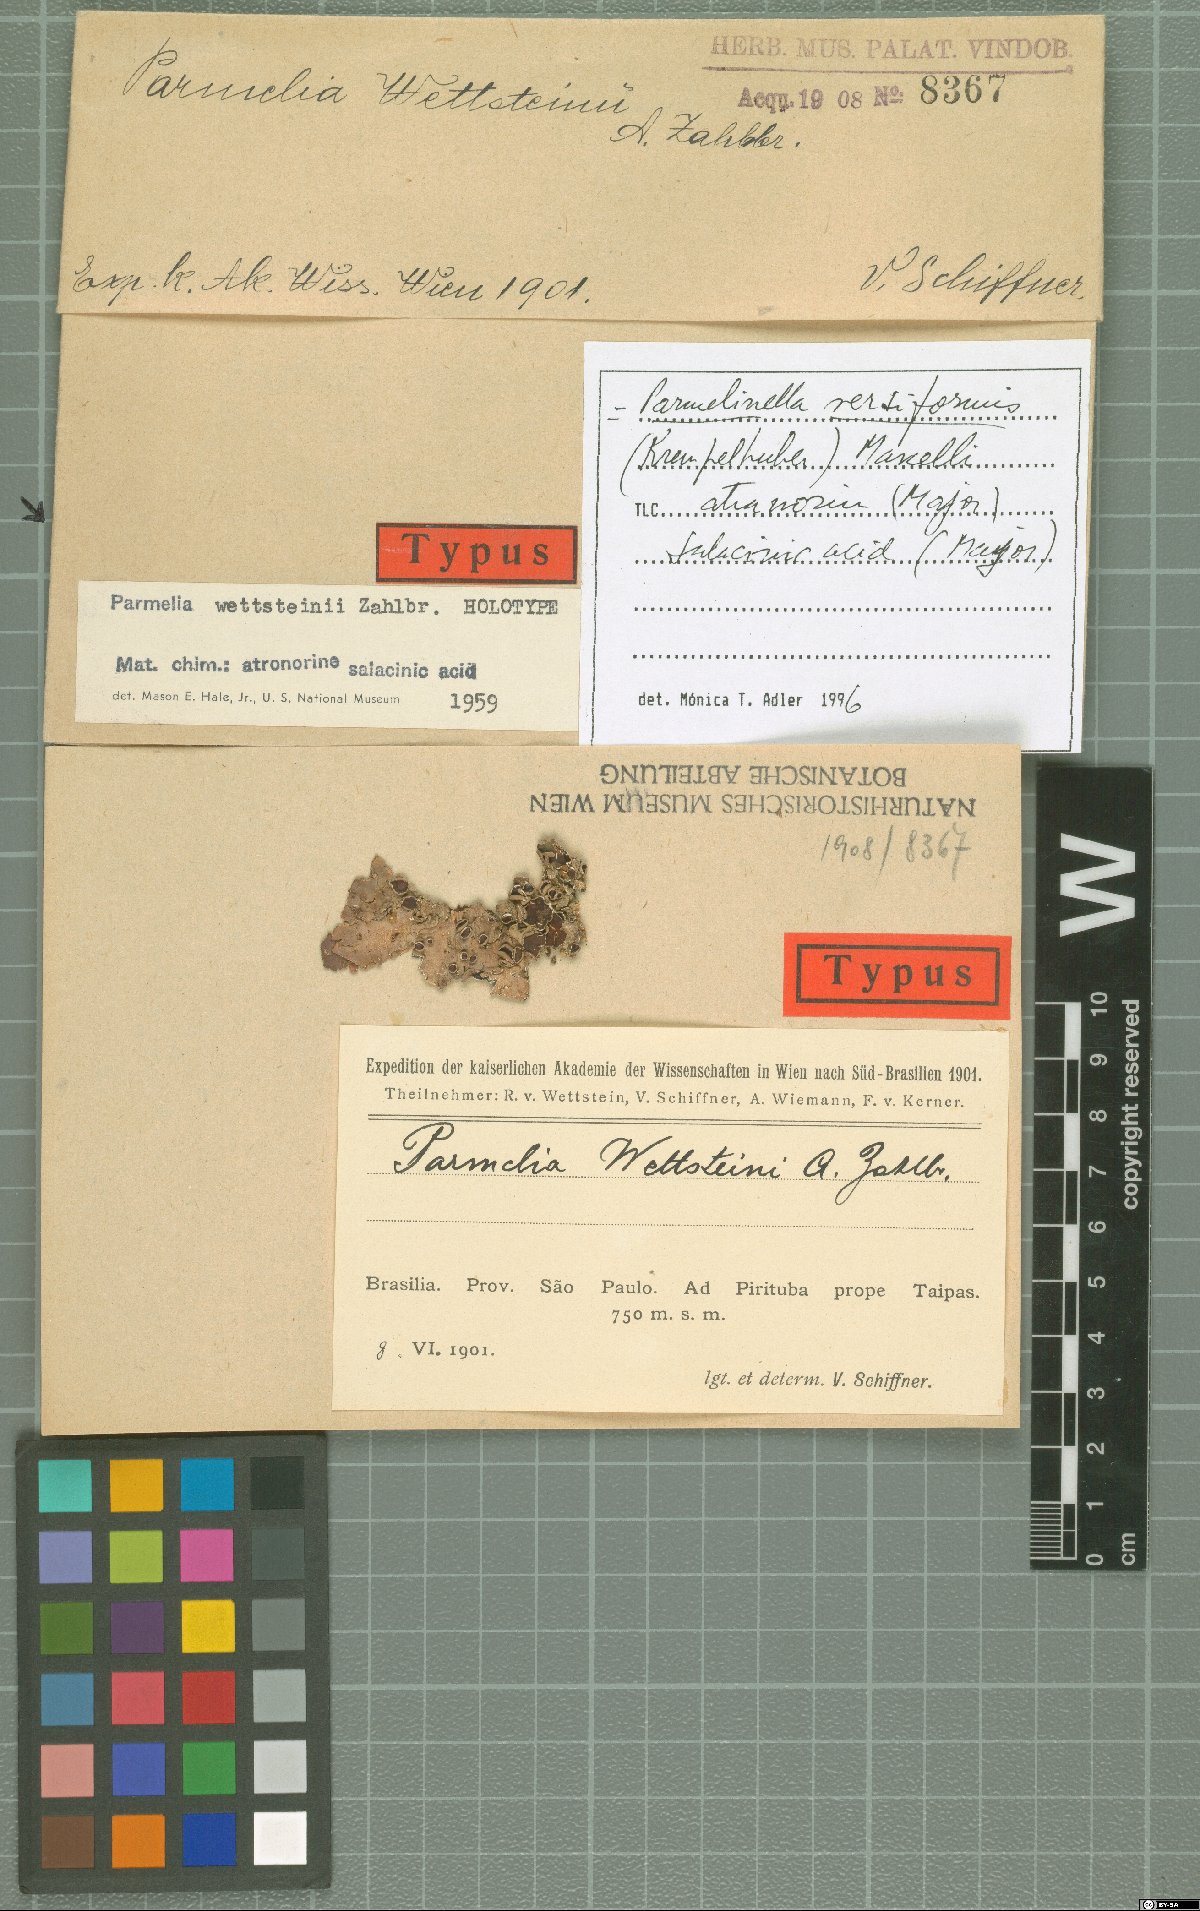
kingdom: Fungi
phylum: Ascomycota
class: Lecanoromycetes
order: Lecanorales
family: Parmeliaceae
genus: Parmelia
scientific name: Parmelia
